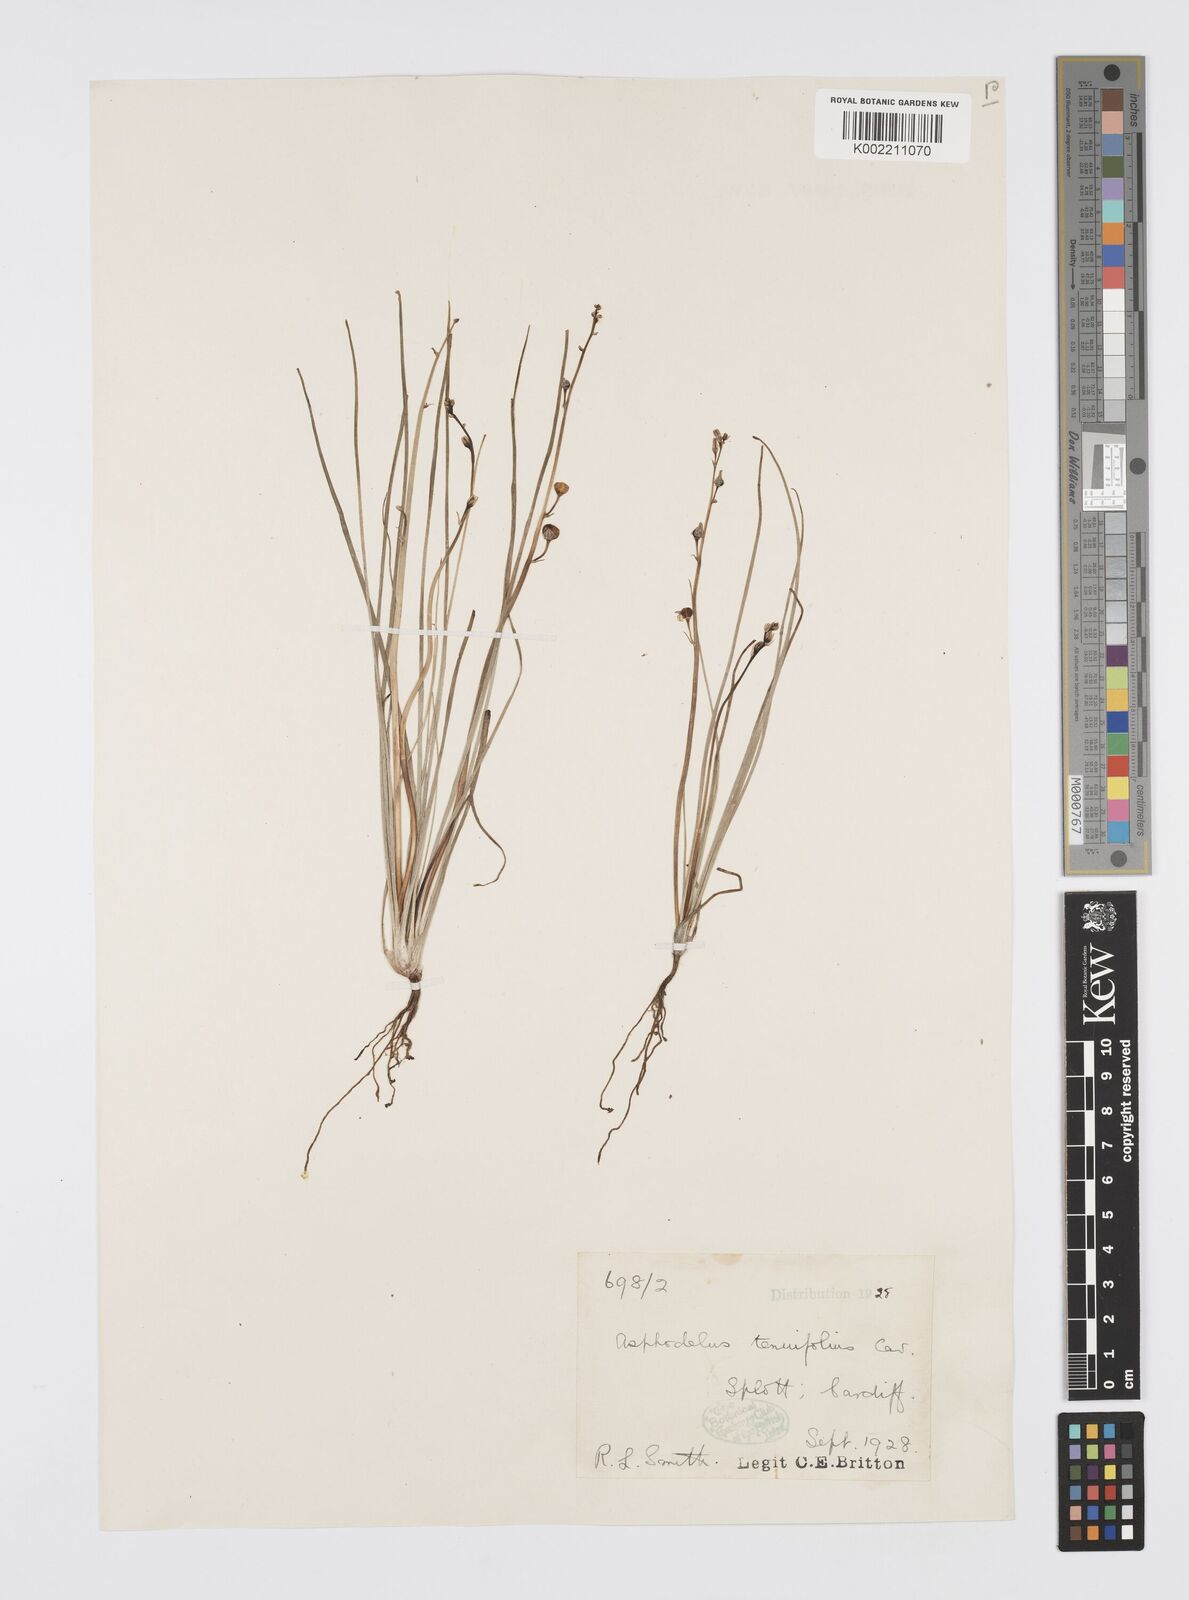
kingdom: Plantae
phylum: Tracheophyta
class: Liliopsida
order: Asparagales
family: Asphodelaceae
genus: Asphodelus
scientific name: Asphodelus tenuifolius
